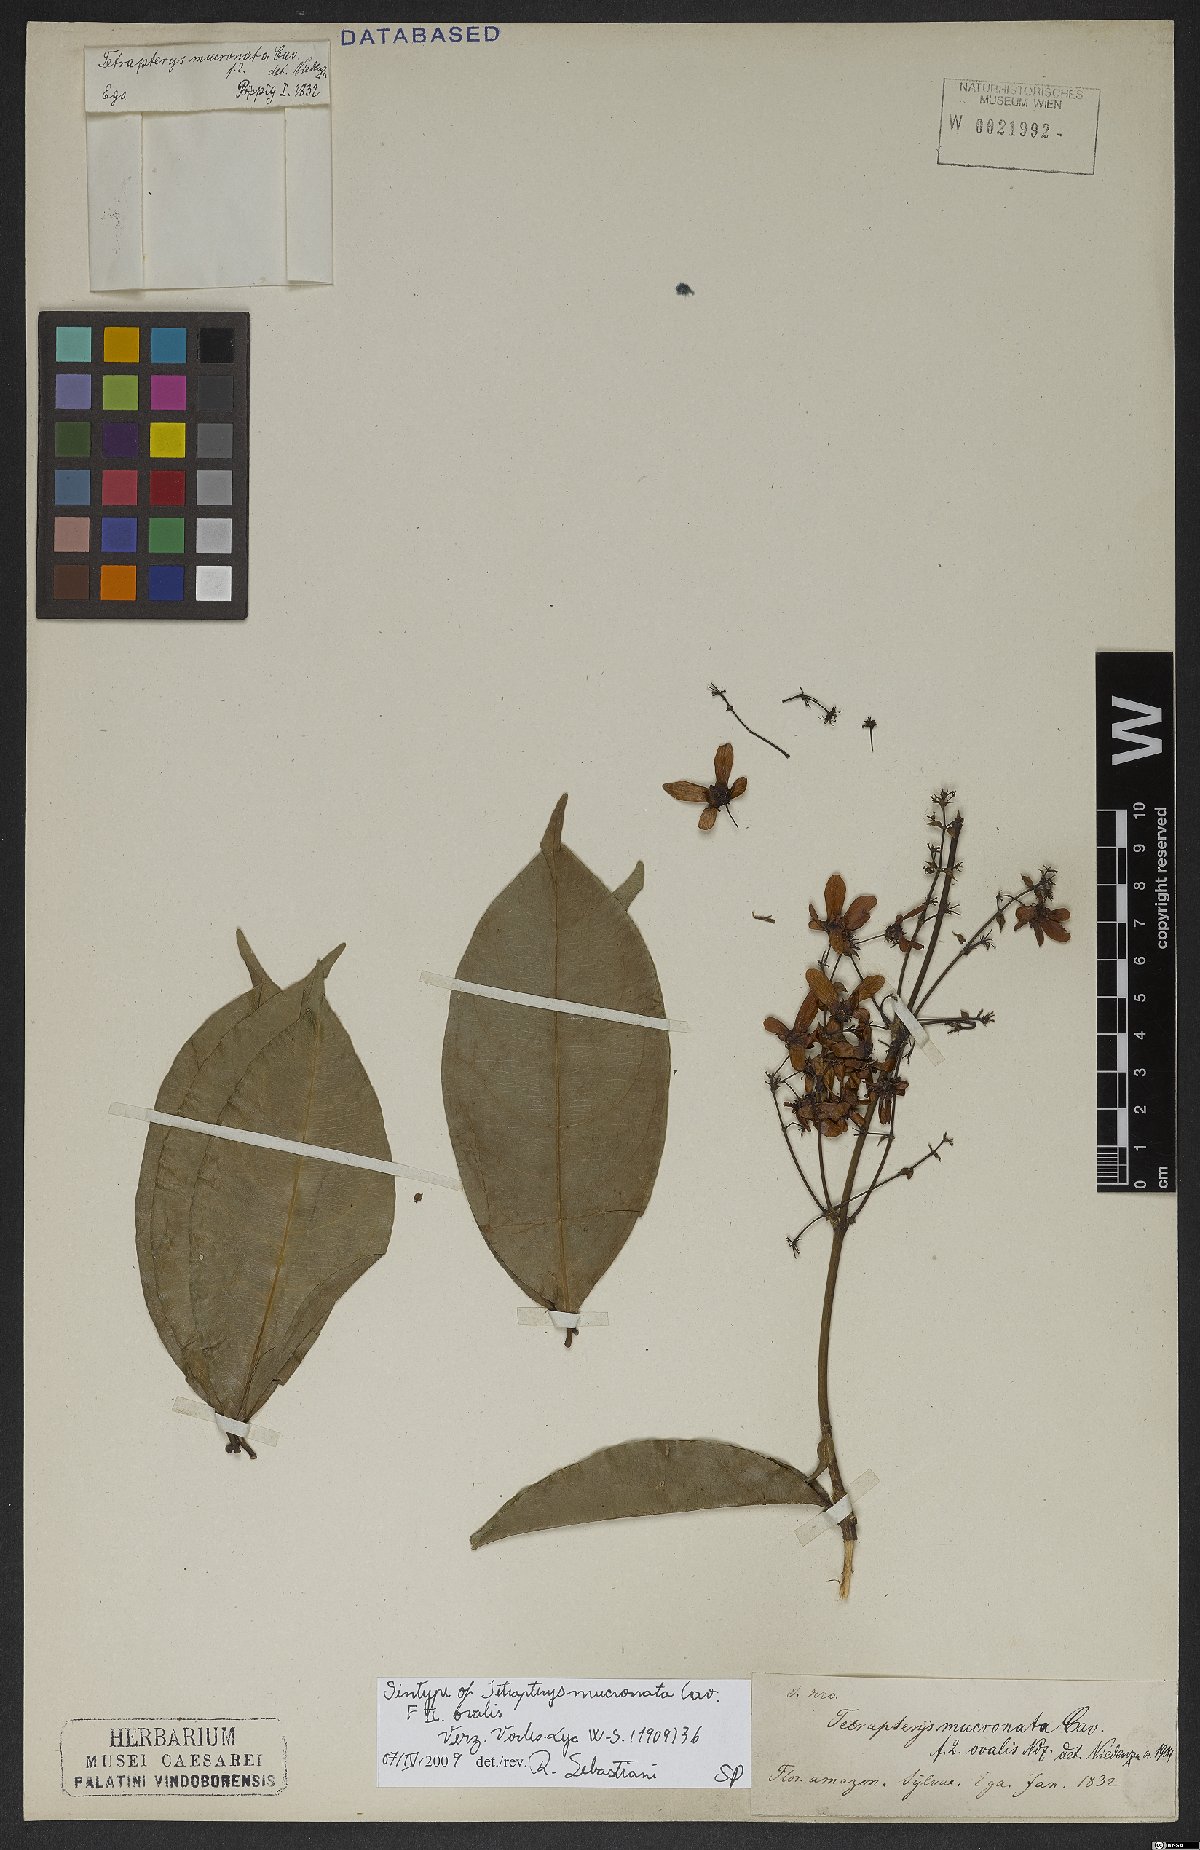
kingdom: Plantae
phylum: Tracheophyta
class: Magnoliopsida
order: Malpighiales
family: Malpighiaceae
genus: Tetrapterys
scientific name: Tetrapterys mucronata
